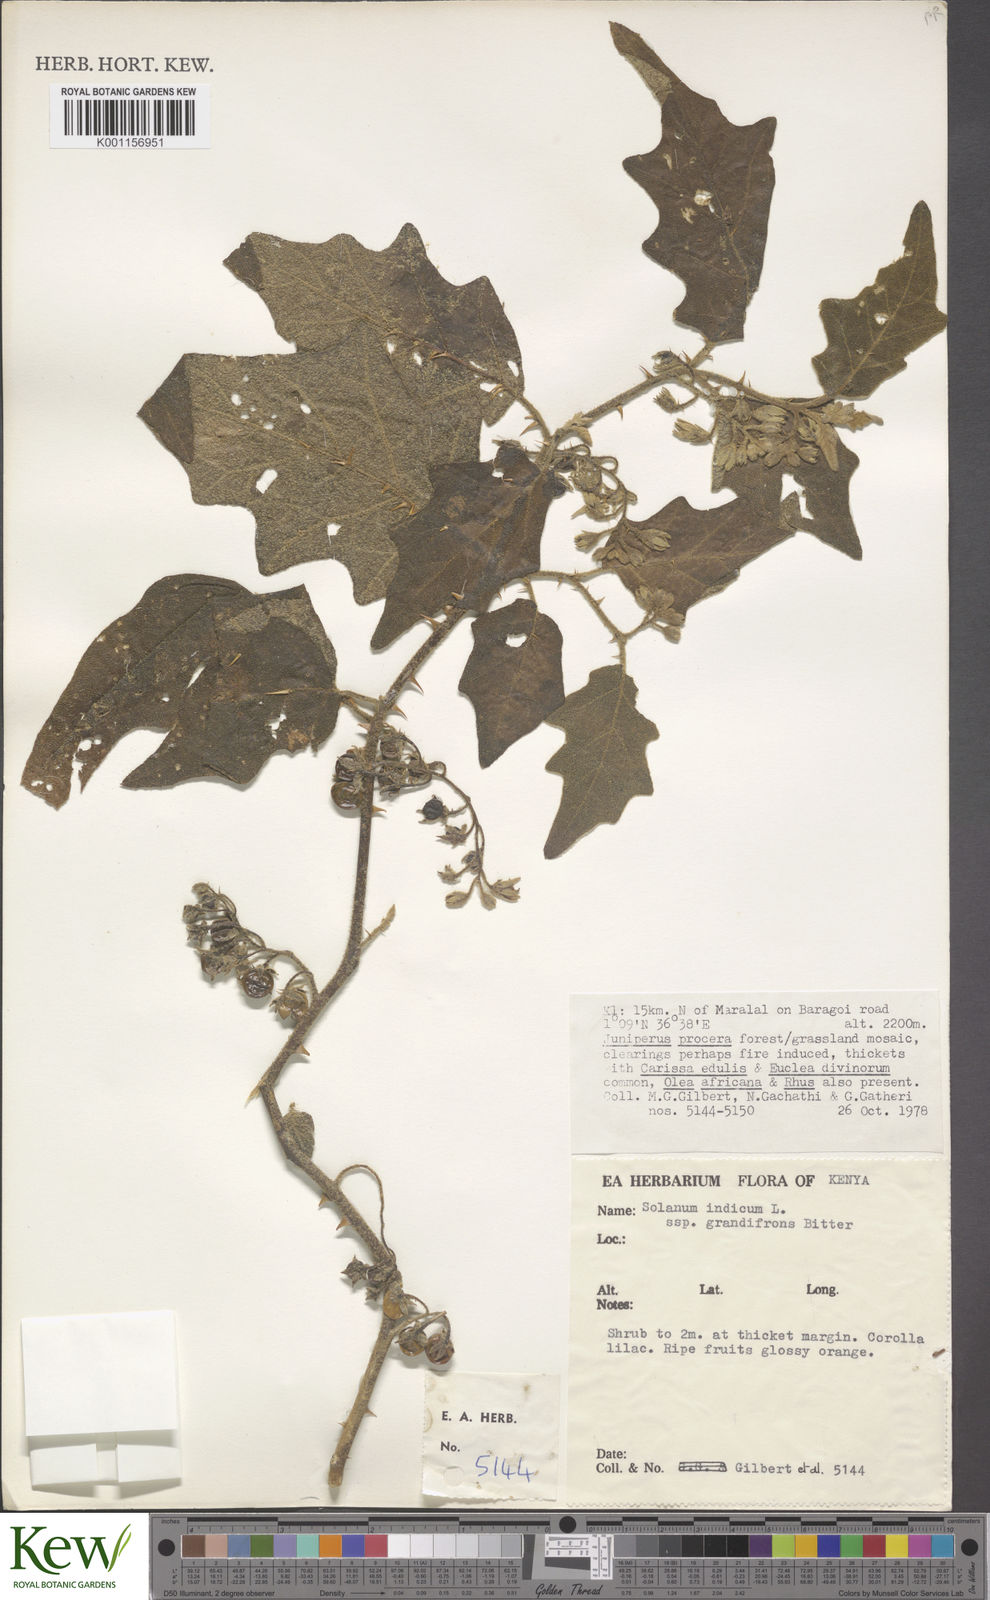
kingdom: Plantae
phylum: Tracheophyta
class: Magnoliopsida
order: Solanales
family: Solanaceae
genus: Solanum
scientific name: Solanum anguivi
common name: Forest bitterberry
